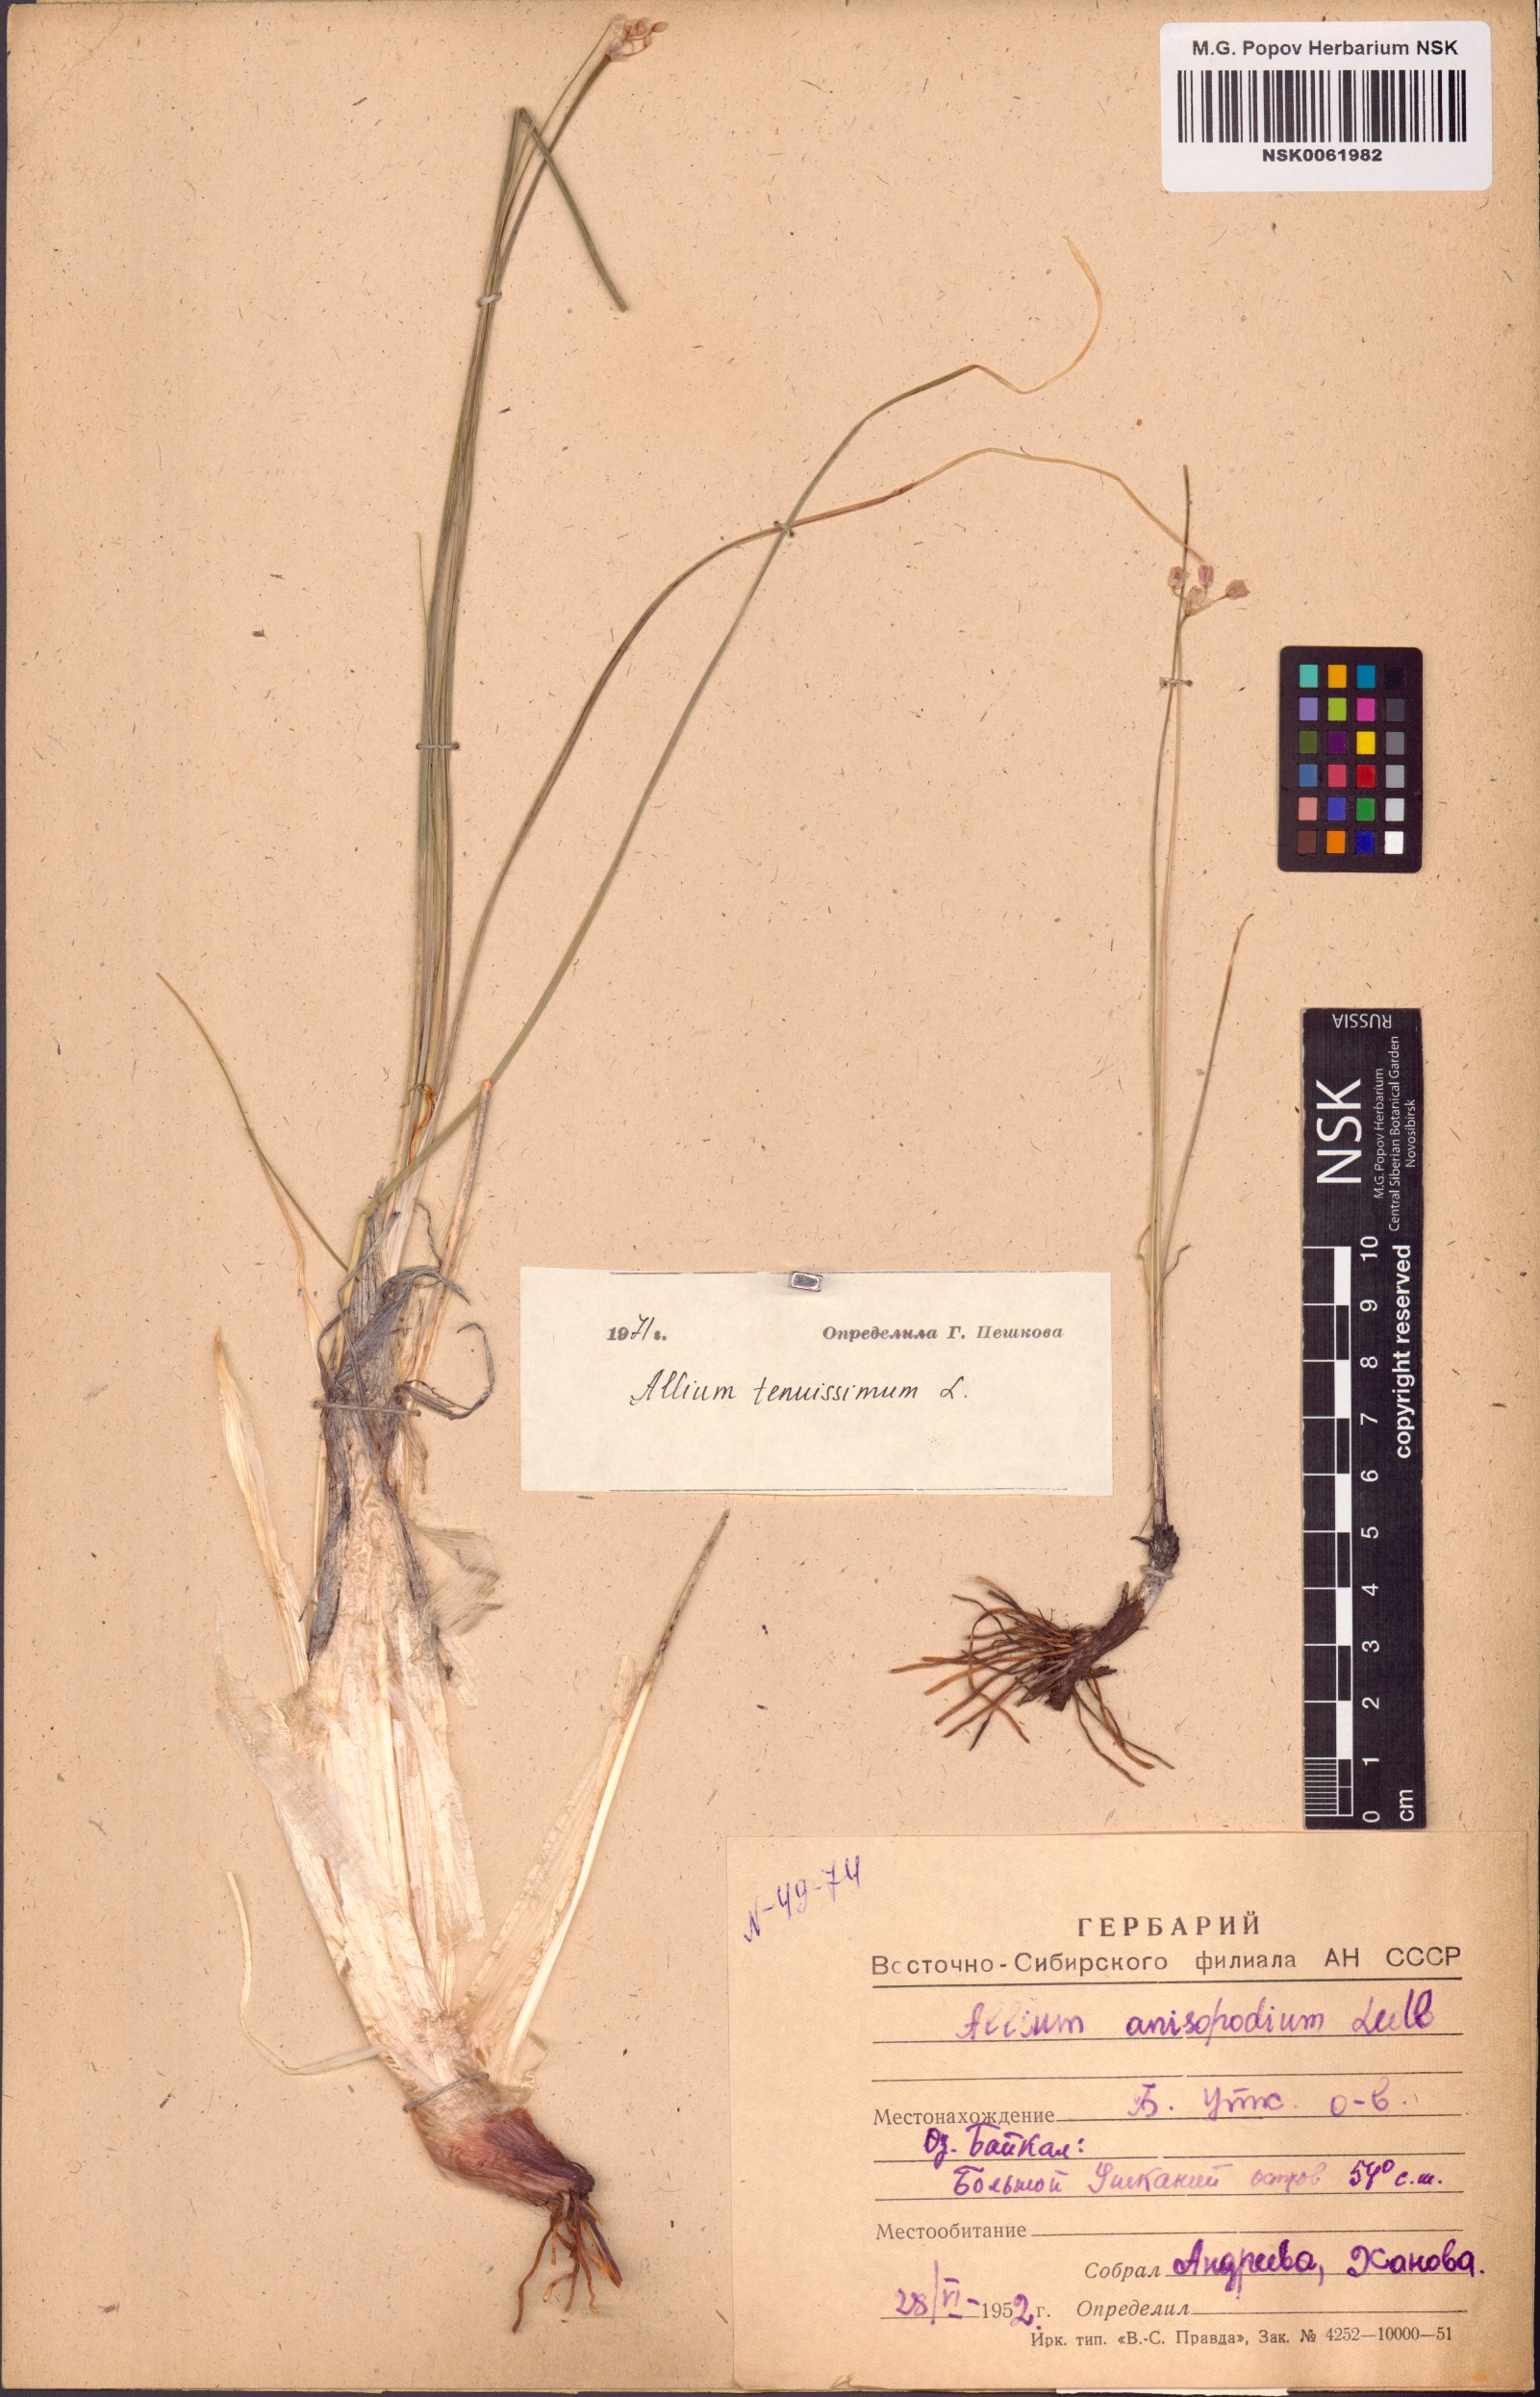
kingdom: Plantae
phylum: Tracheophyta
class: Liliopsida
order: Asparagales
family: Amaryllidaceae
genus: Allium
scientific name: Allium tenuissimum
